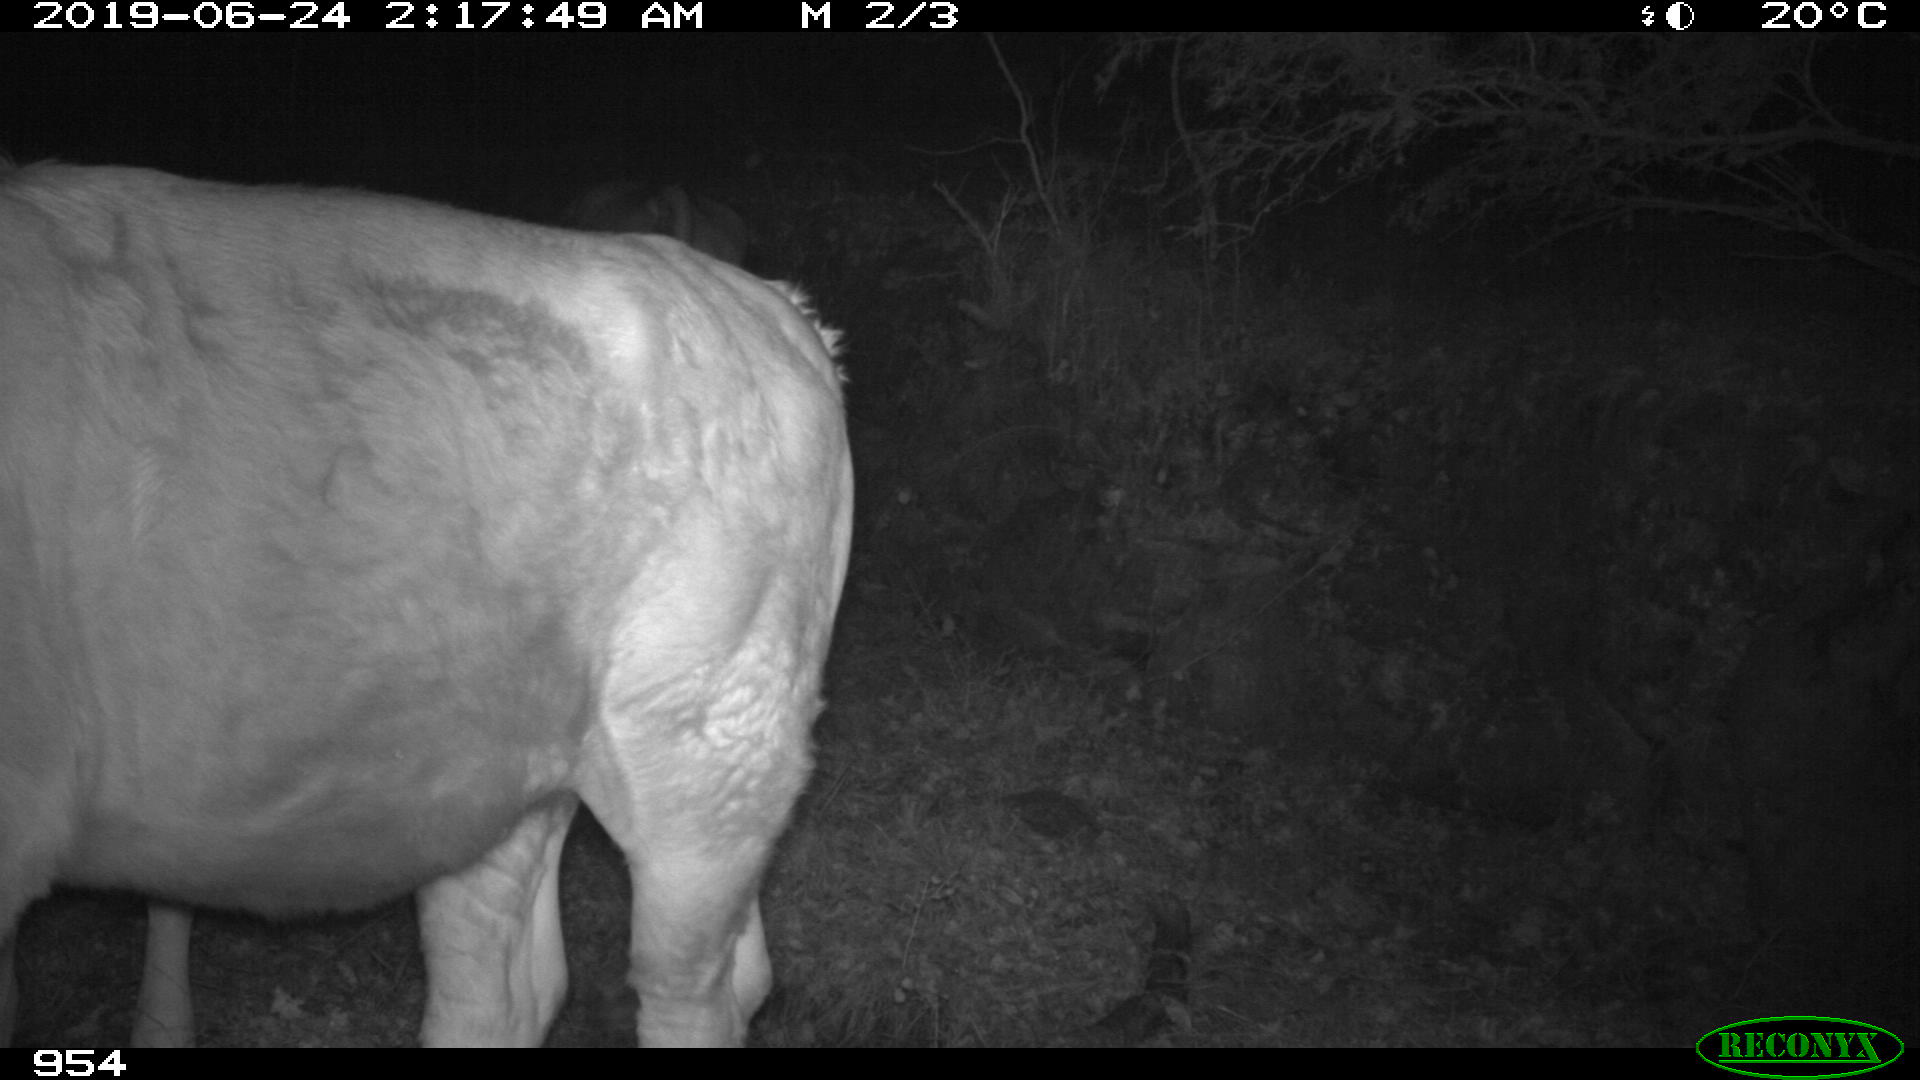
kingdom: Animalia
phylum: Chordata
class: Mammalia
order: Artiodactyla
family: Bovidae
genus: Bos
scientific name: Bos taurus
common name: Domesticated cattle
